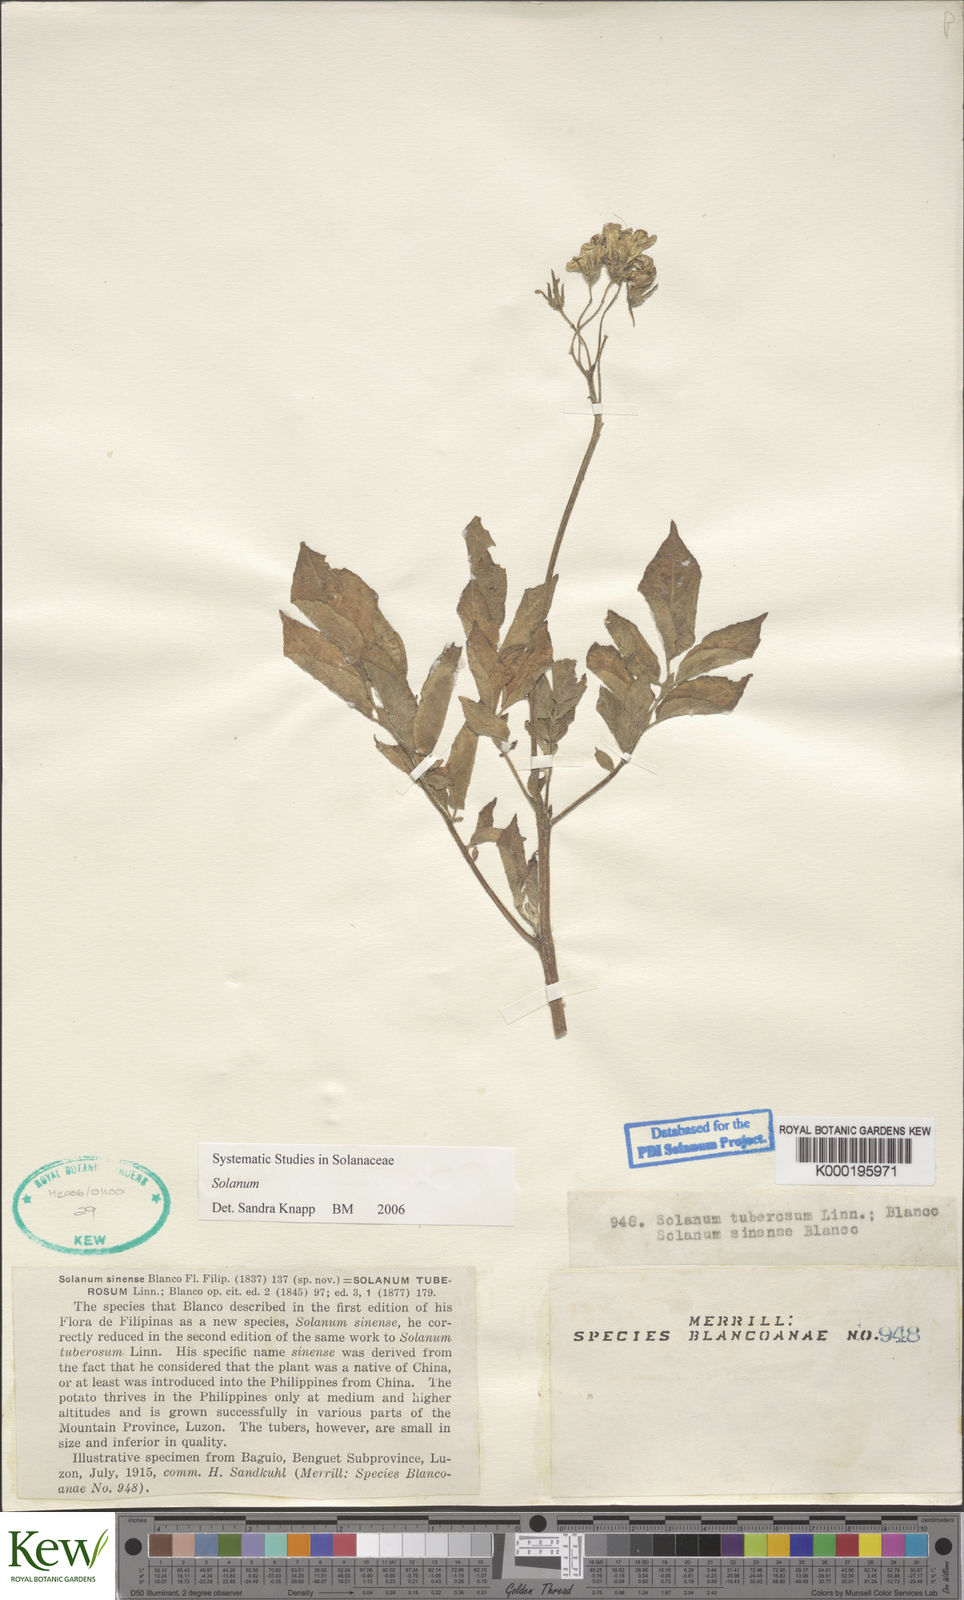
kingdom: Plantae
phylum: Tracheophyta
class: Magnoliopsida
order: Solanales
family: Solanaceae
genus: Solanum
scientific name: Solanum tuberosum
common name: Potato
